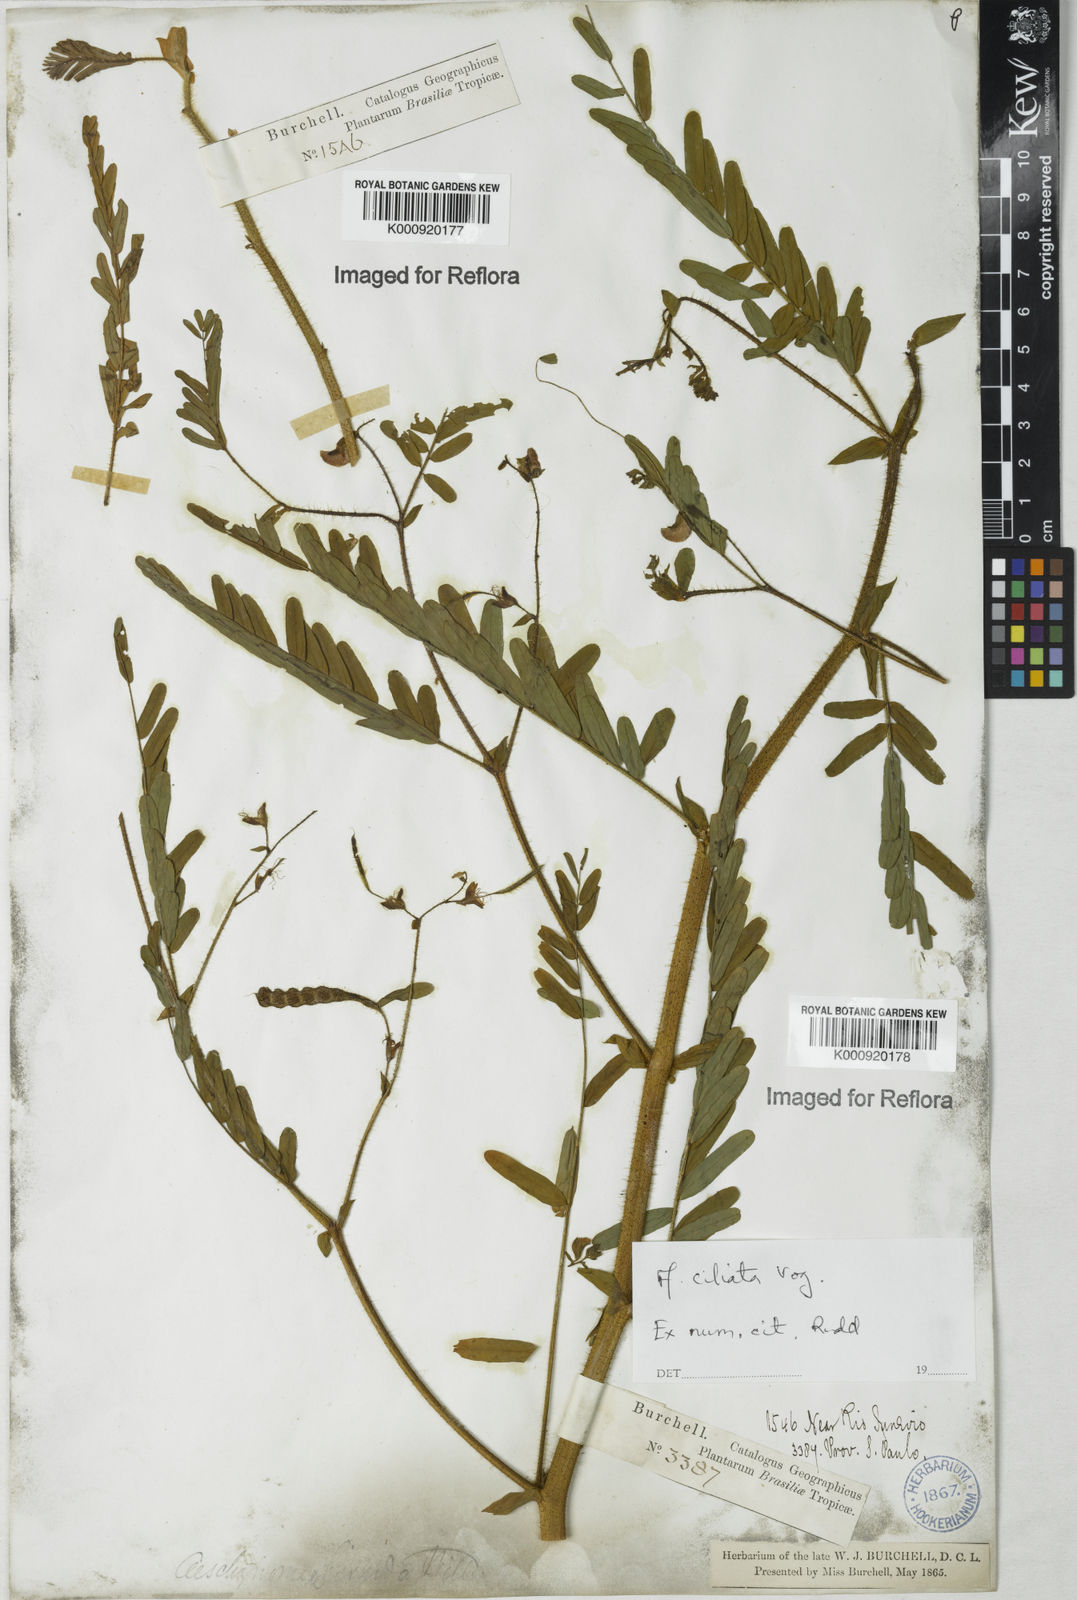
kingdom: Plantae
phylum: Tracheophyta
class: Magnoliopsida
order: Fabales
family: Fabaceae
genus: Aeschynomene
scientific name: Aeschynomene ciliata
